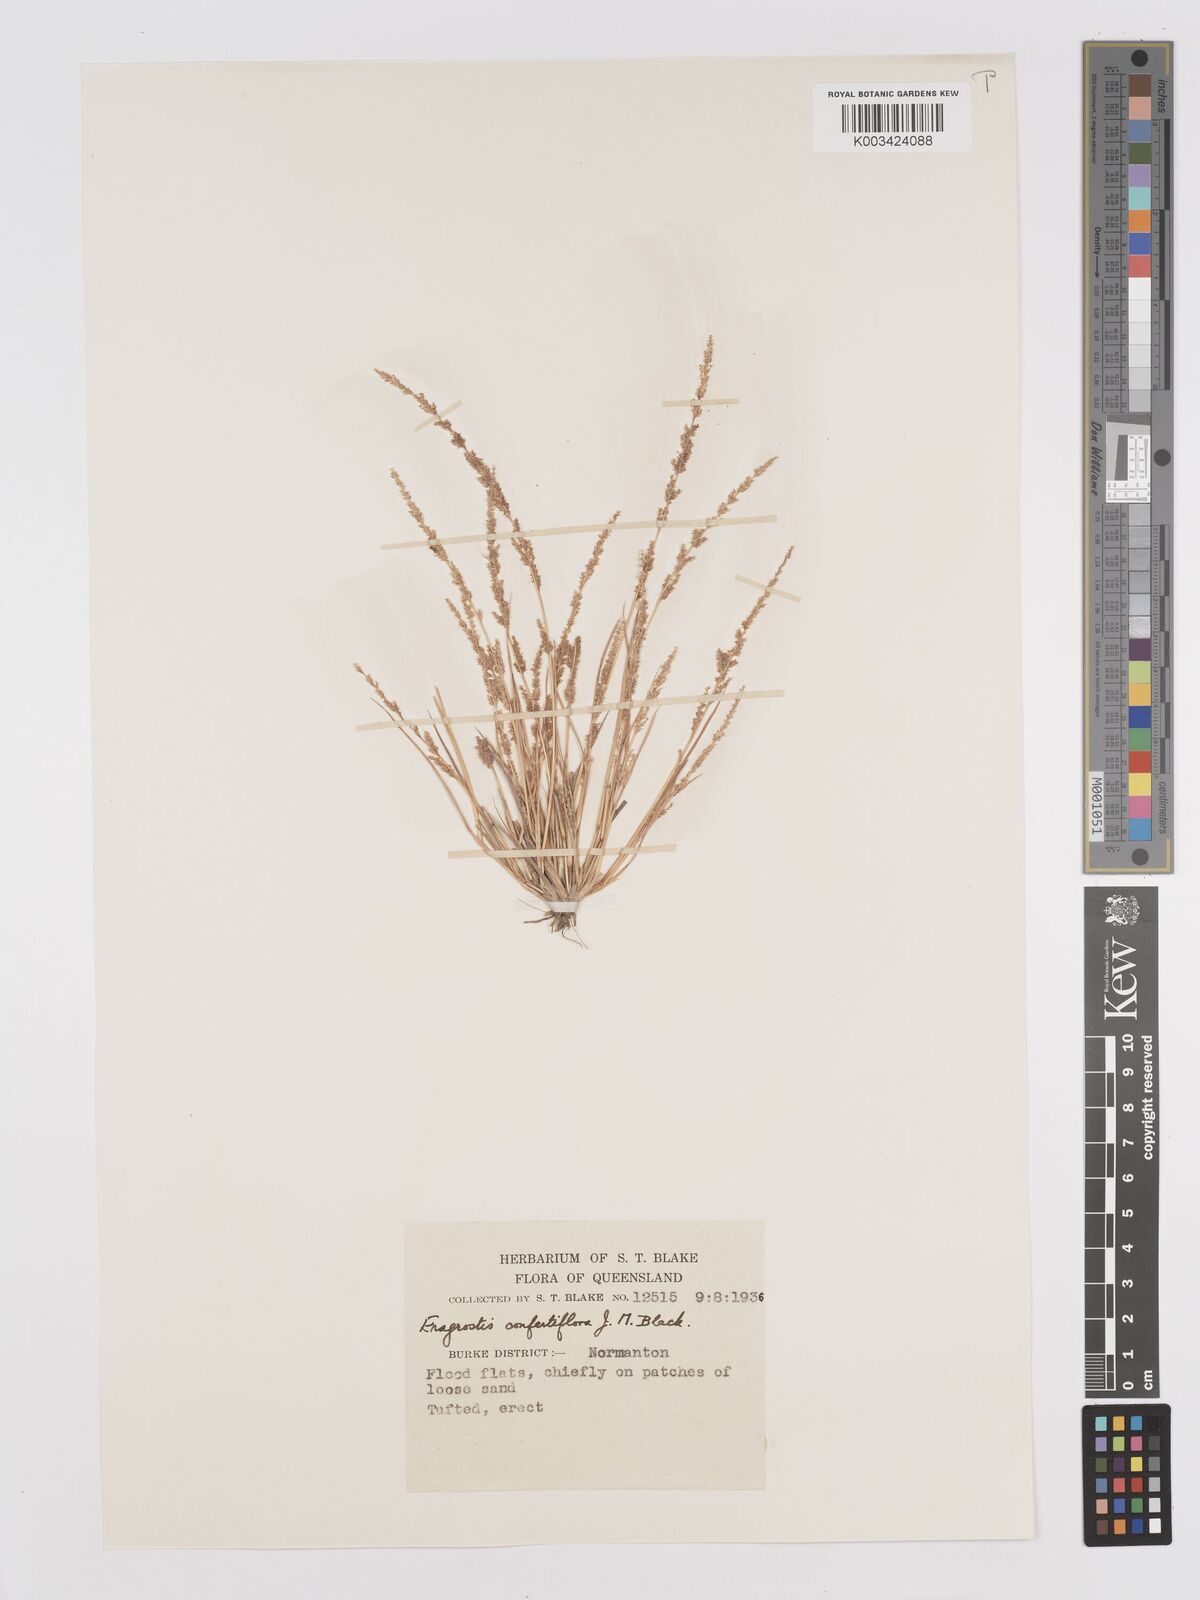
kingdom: Plantae
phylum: Tracheophyta
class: Liliopsida
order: Poales
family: Poaceae
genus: Eragrostis
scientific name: Eragrostis confertiflora
